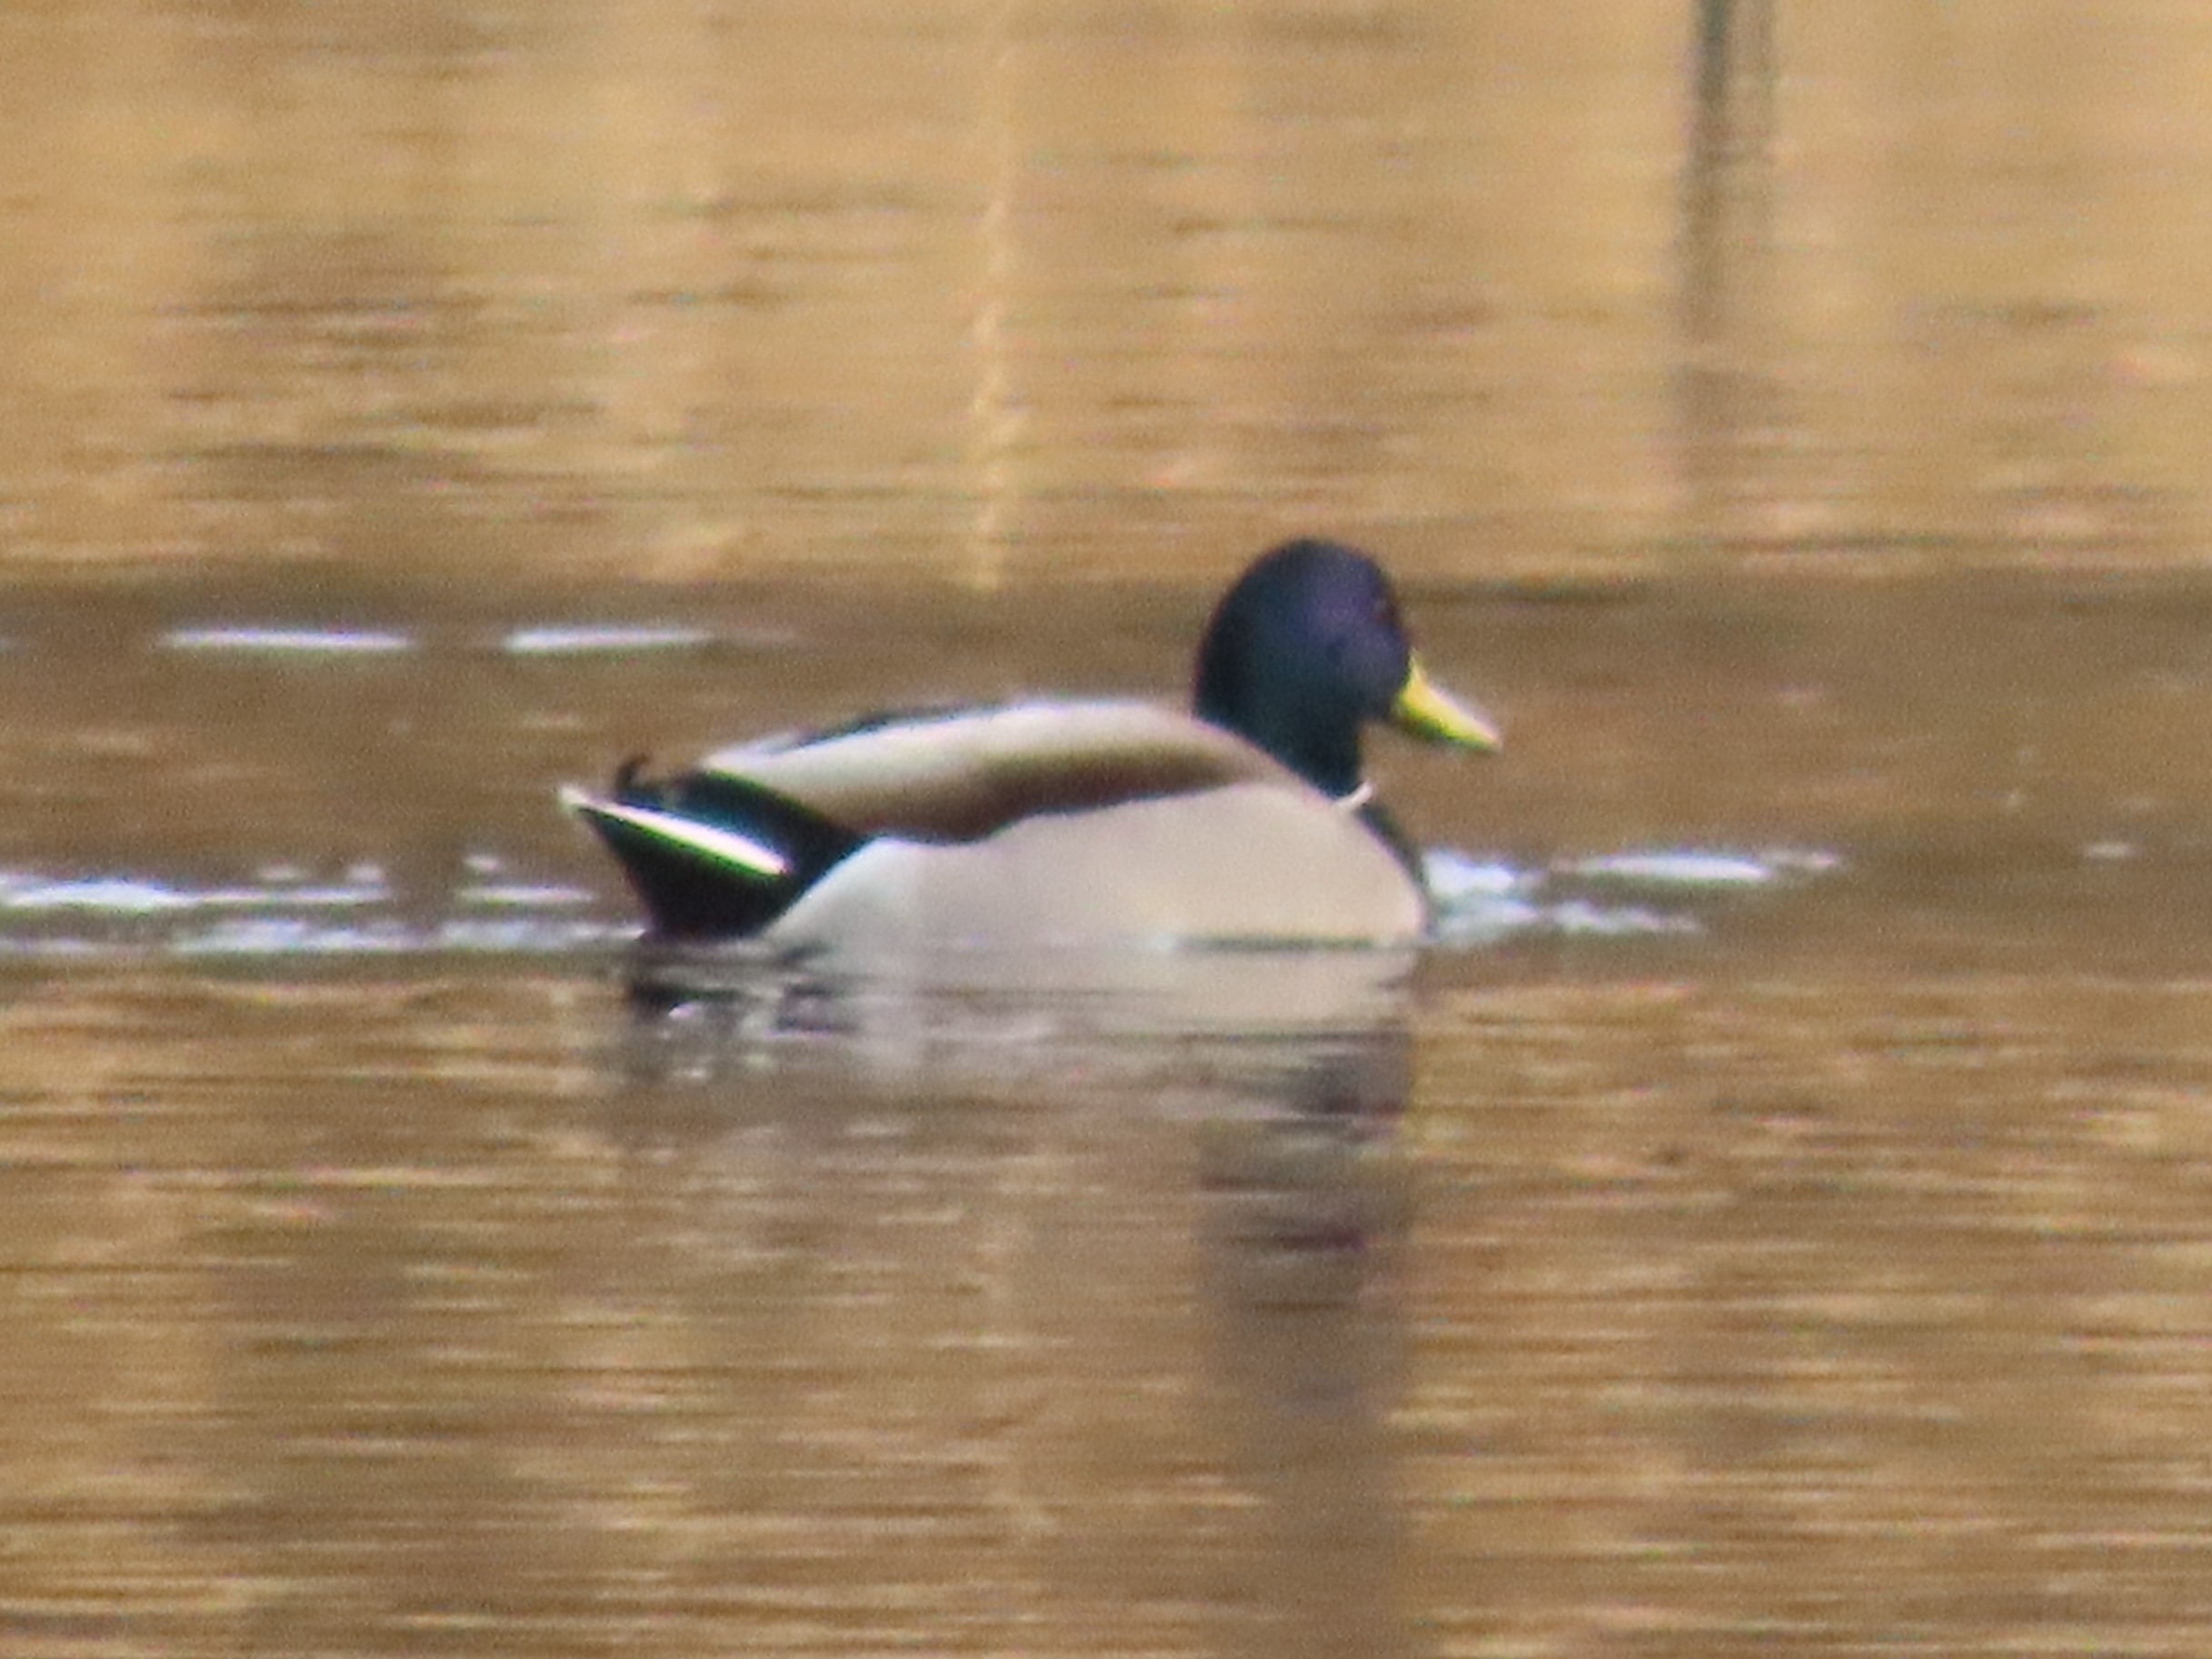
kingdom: Animalia
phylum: Chordata
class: Aves
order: Anseriformes
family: Anatidae
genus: Anas
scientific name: Anas platyrhynchos
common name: Gråand
